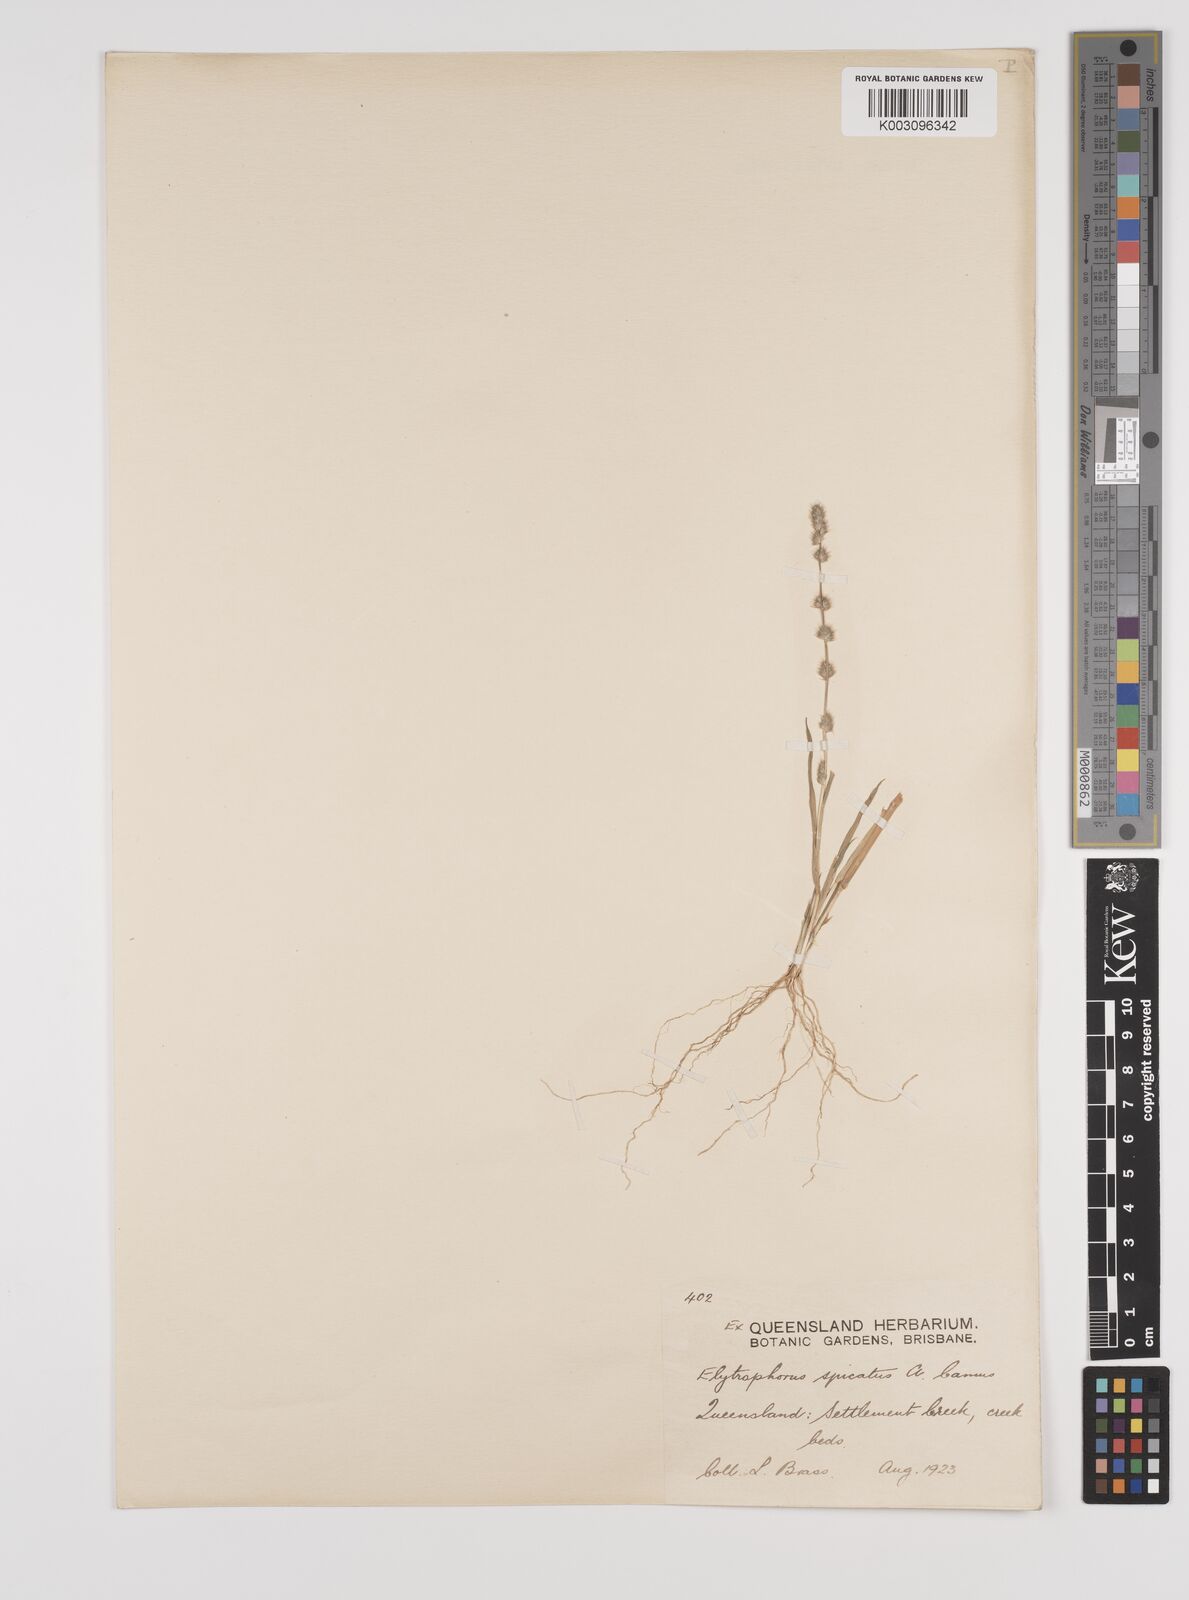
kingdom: Plantae
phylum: Tracheophyta
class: Liliopsida
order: Poales
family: Poaceae
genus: Elytrophorus
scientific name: Elytrophorus spicatus
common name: Spike grass
